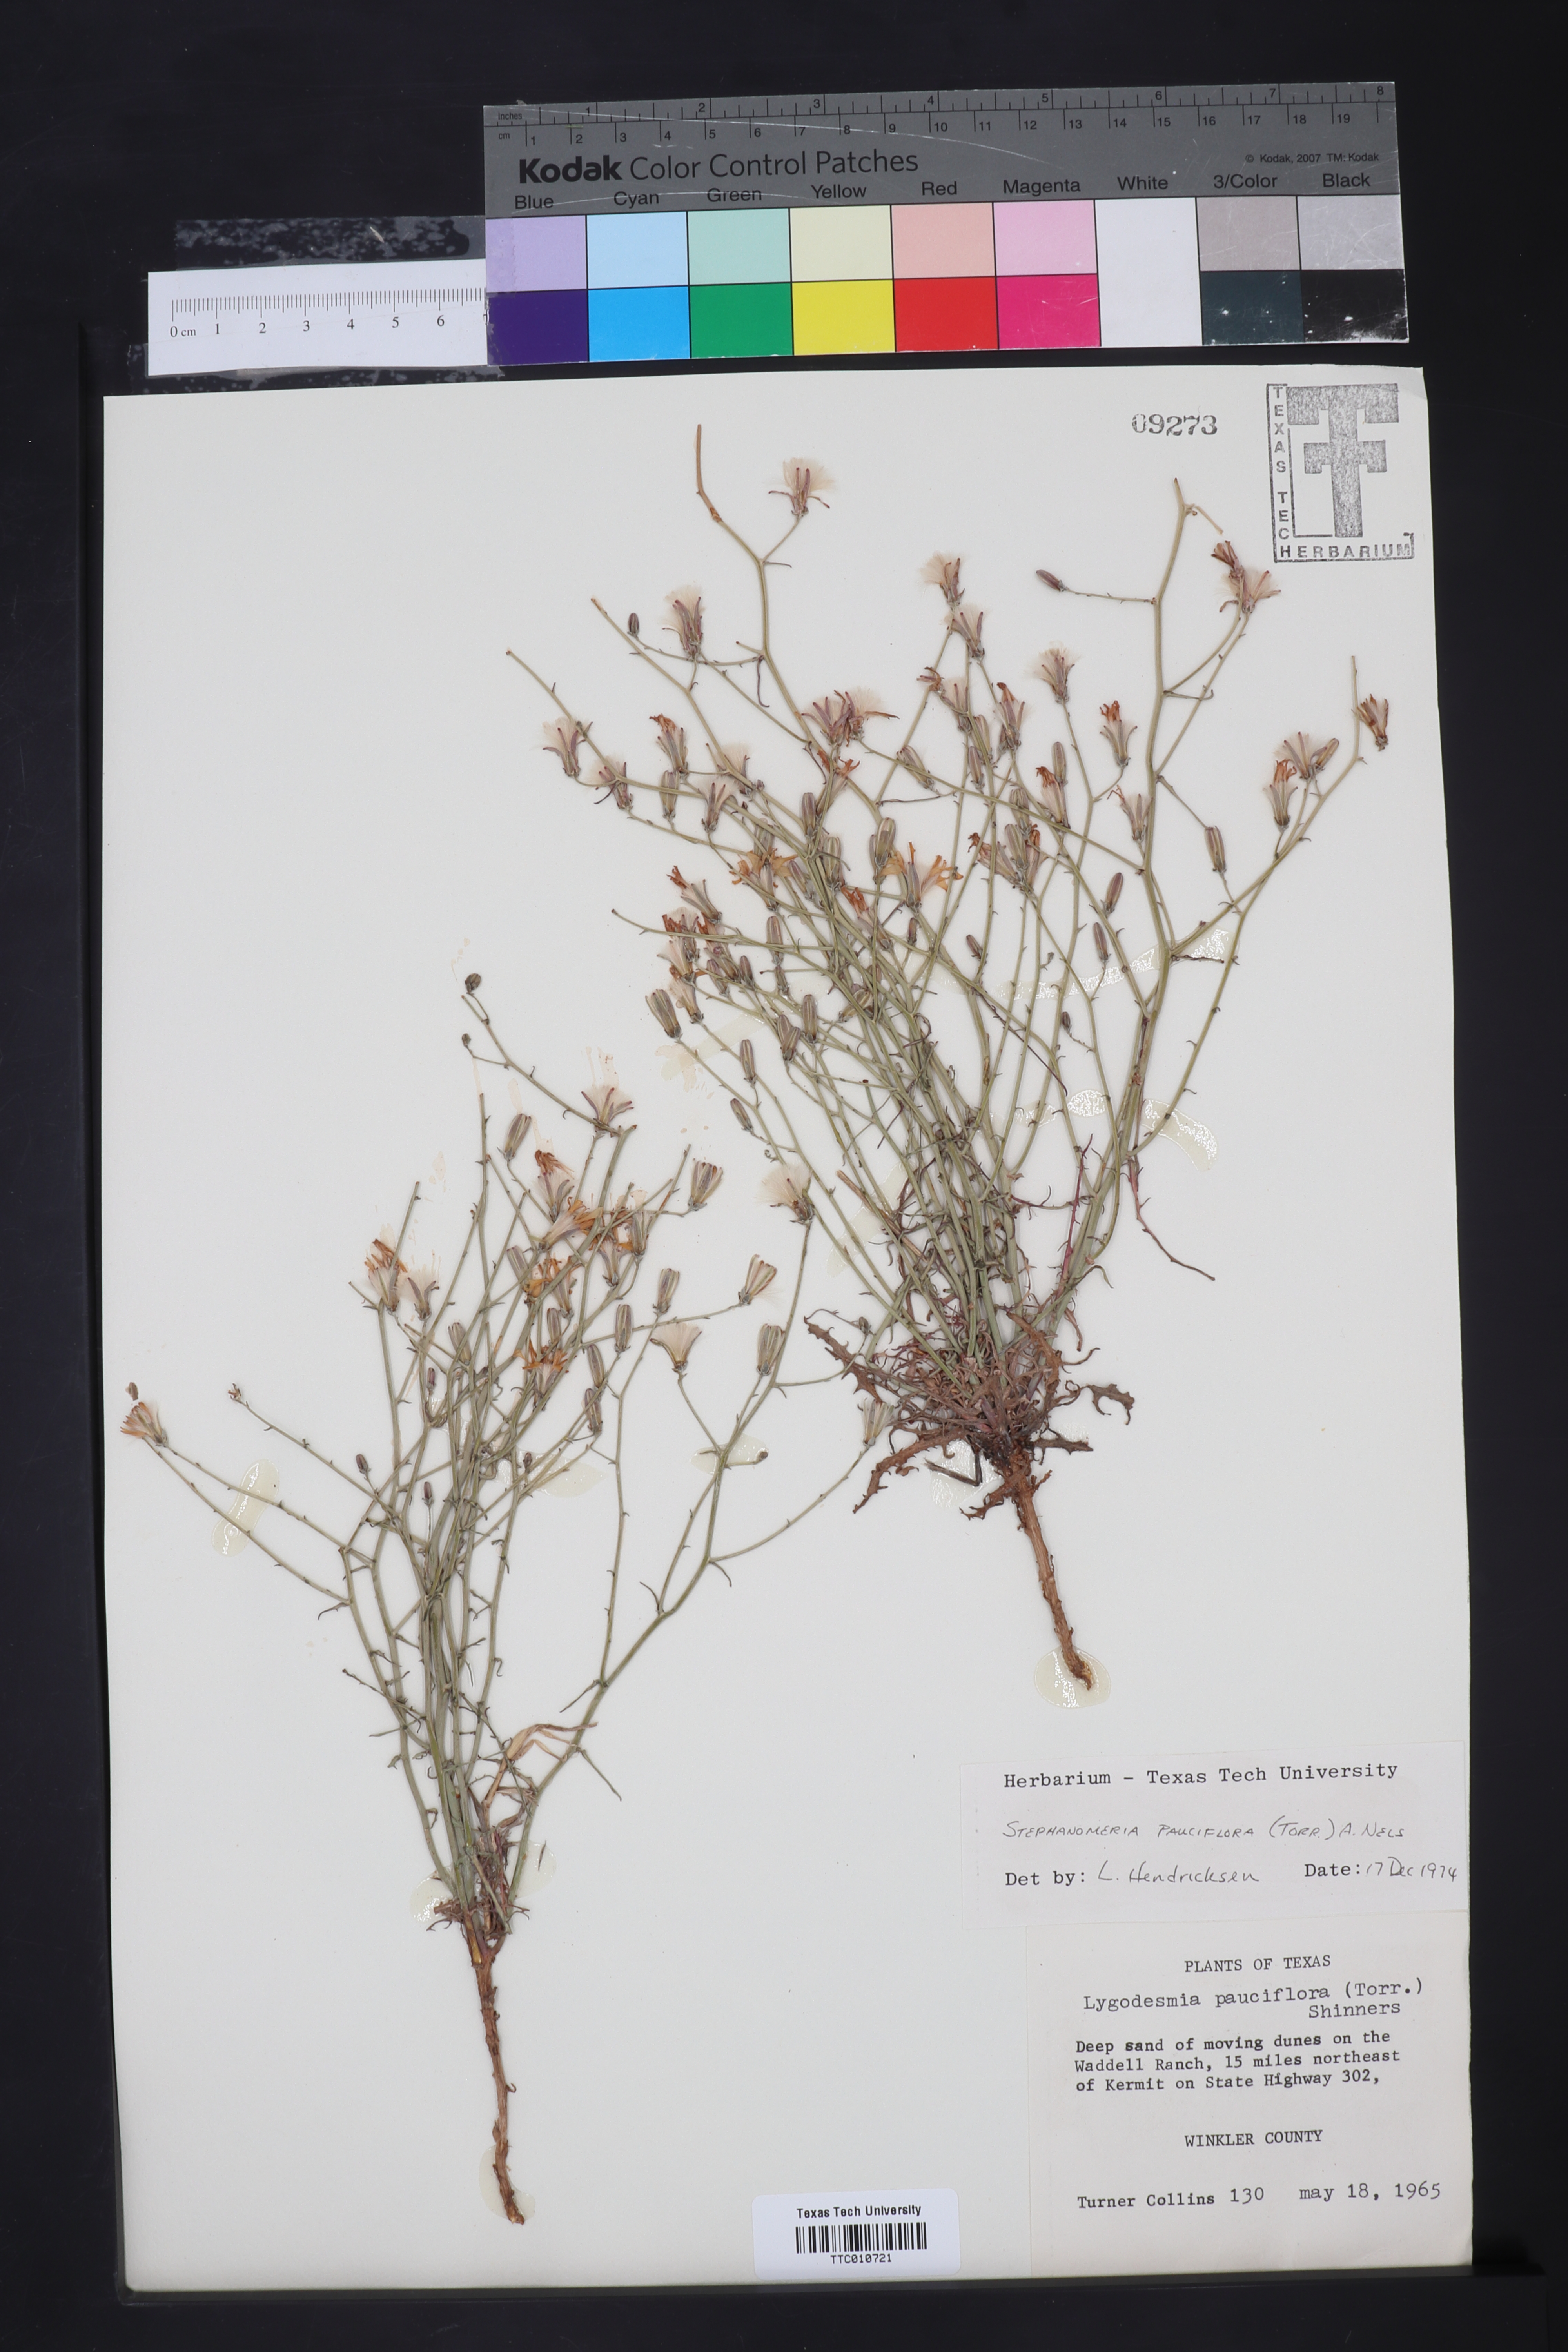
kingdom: Plantae
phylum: Tracheophyta
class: Magnoliopsida
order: Asterales
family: Asteraceae
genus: Stephanomeria
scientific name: Stephanomeria pauciflora
